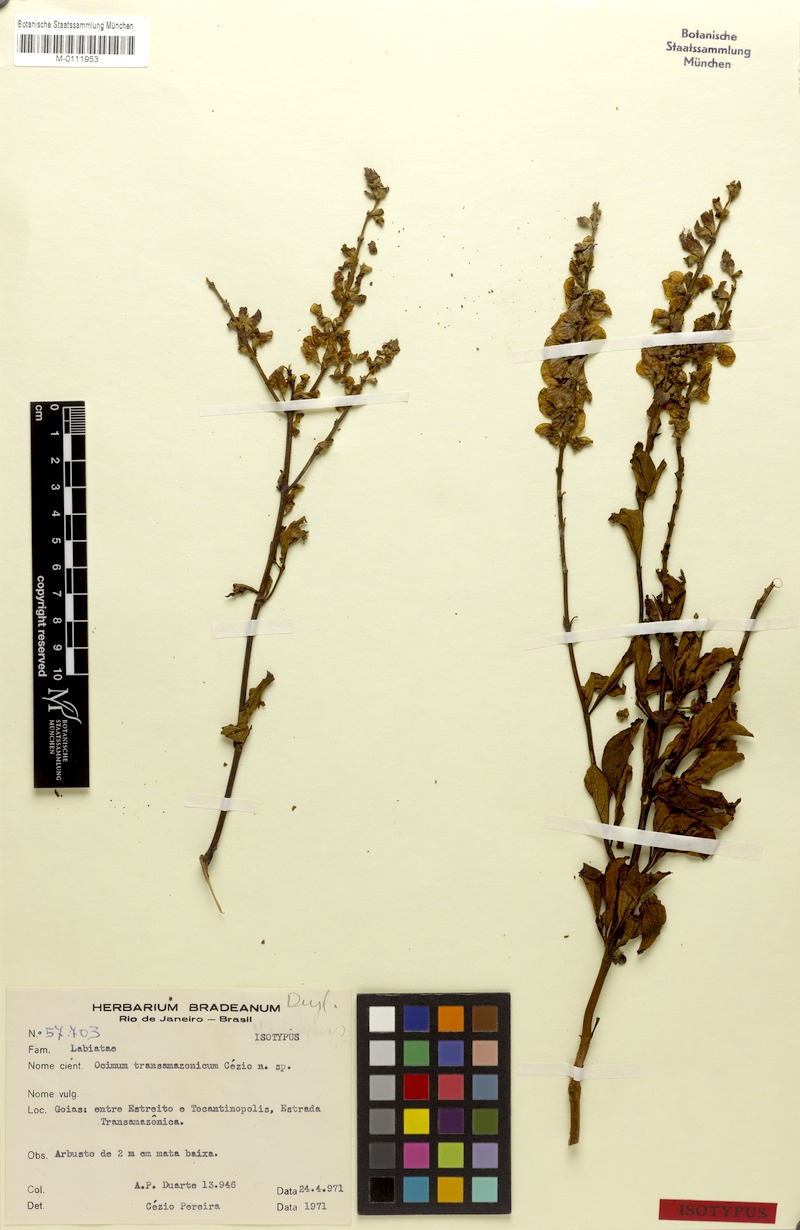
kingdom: Plantae
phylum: Tracheophyta
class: Magnoliopsida
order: Lamiales
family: Lamiaceae
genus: Ocimum
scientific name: Ocimum transamazonicum
